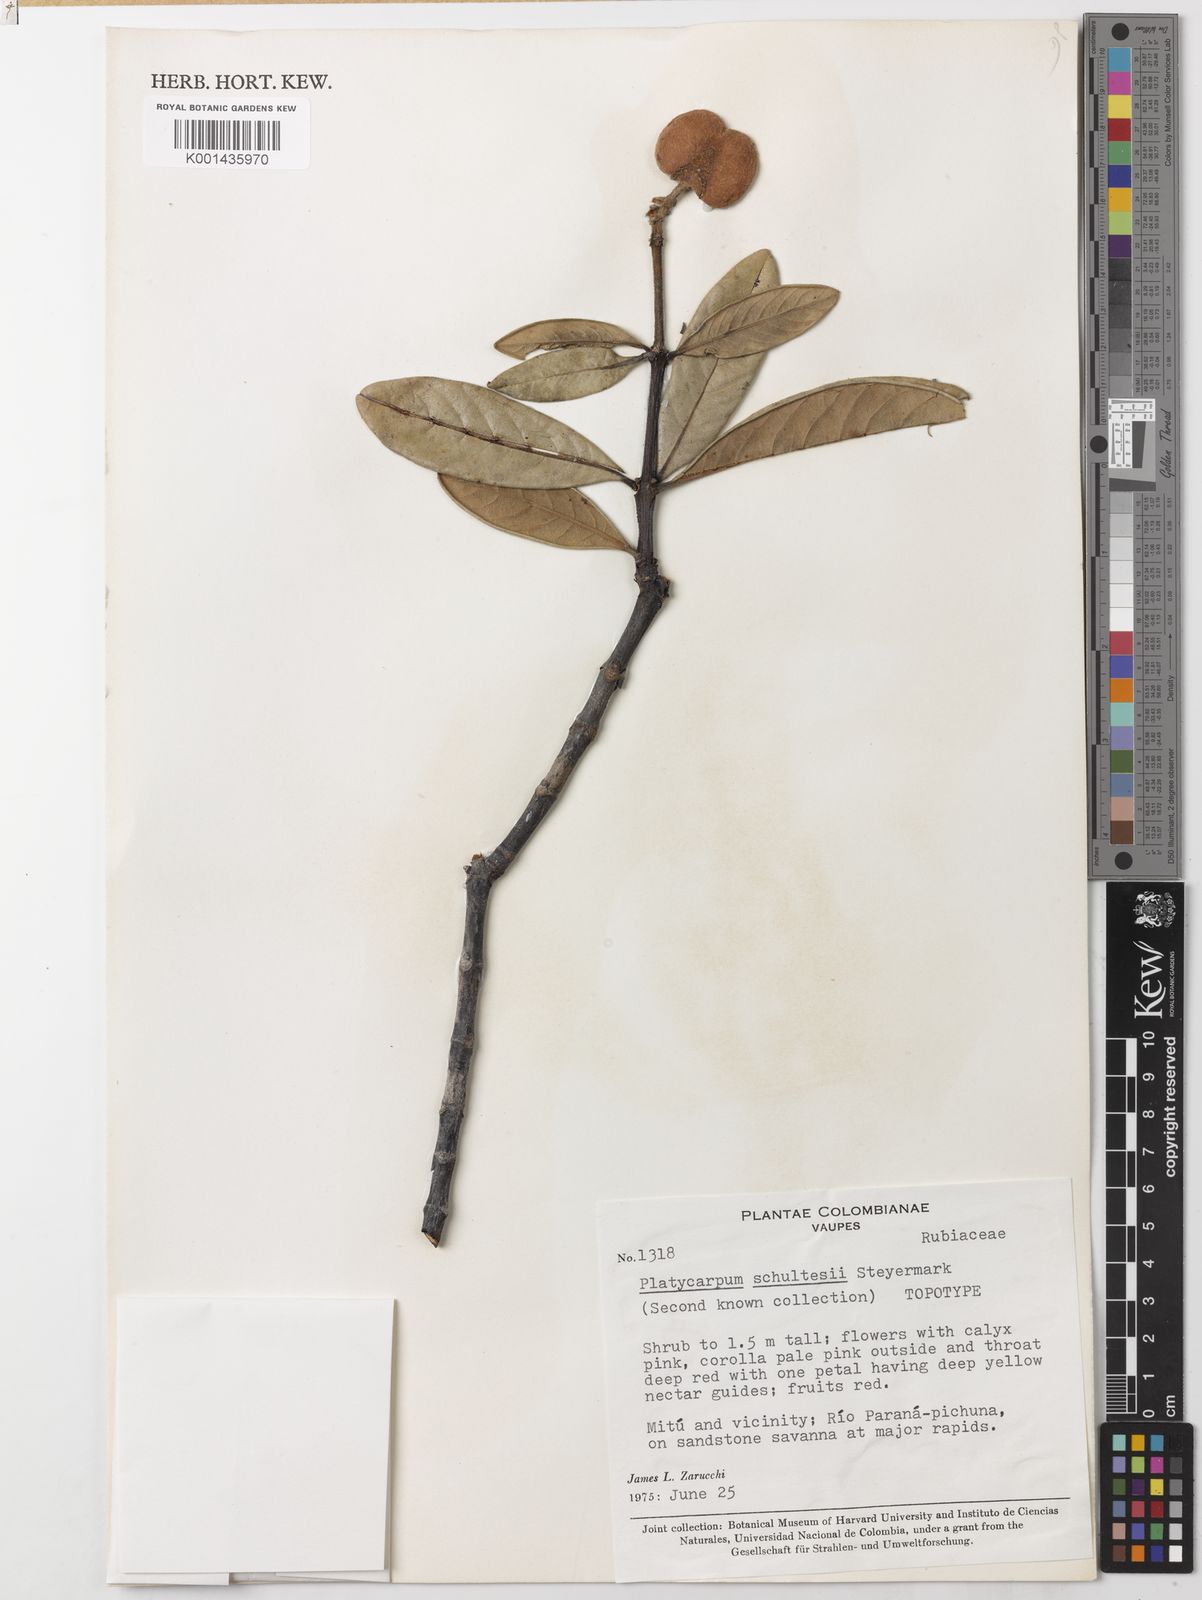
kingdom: Plantae
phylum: Tracheophyta
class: Magnoliopsida
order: Gentianales
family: Rubiaceae
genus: Platycarpum
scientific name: Platycarpum schultesii
